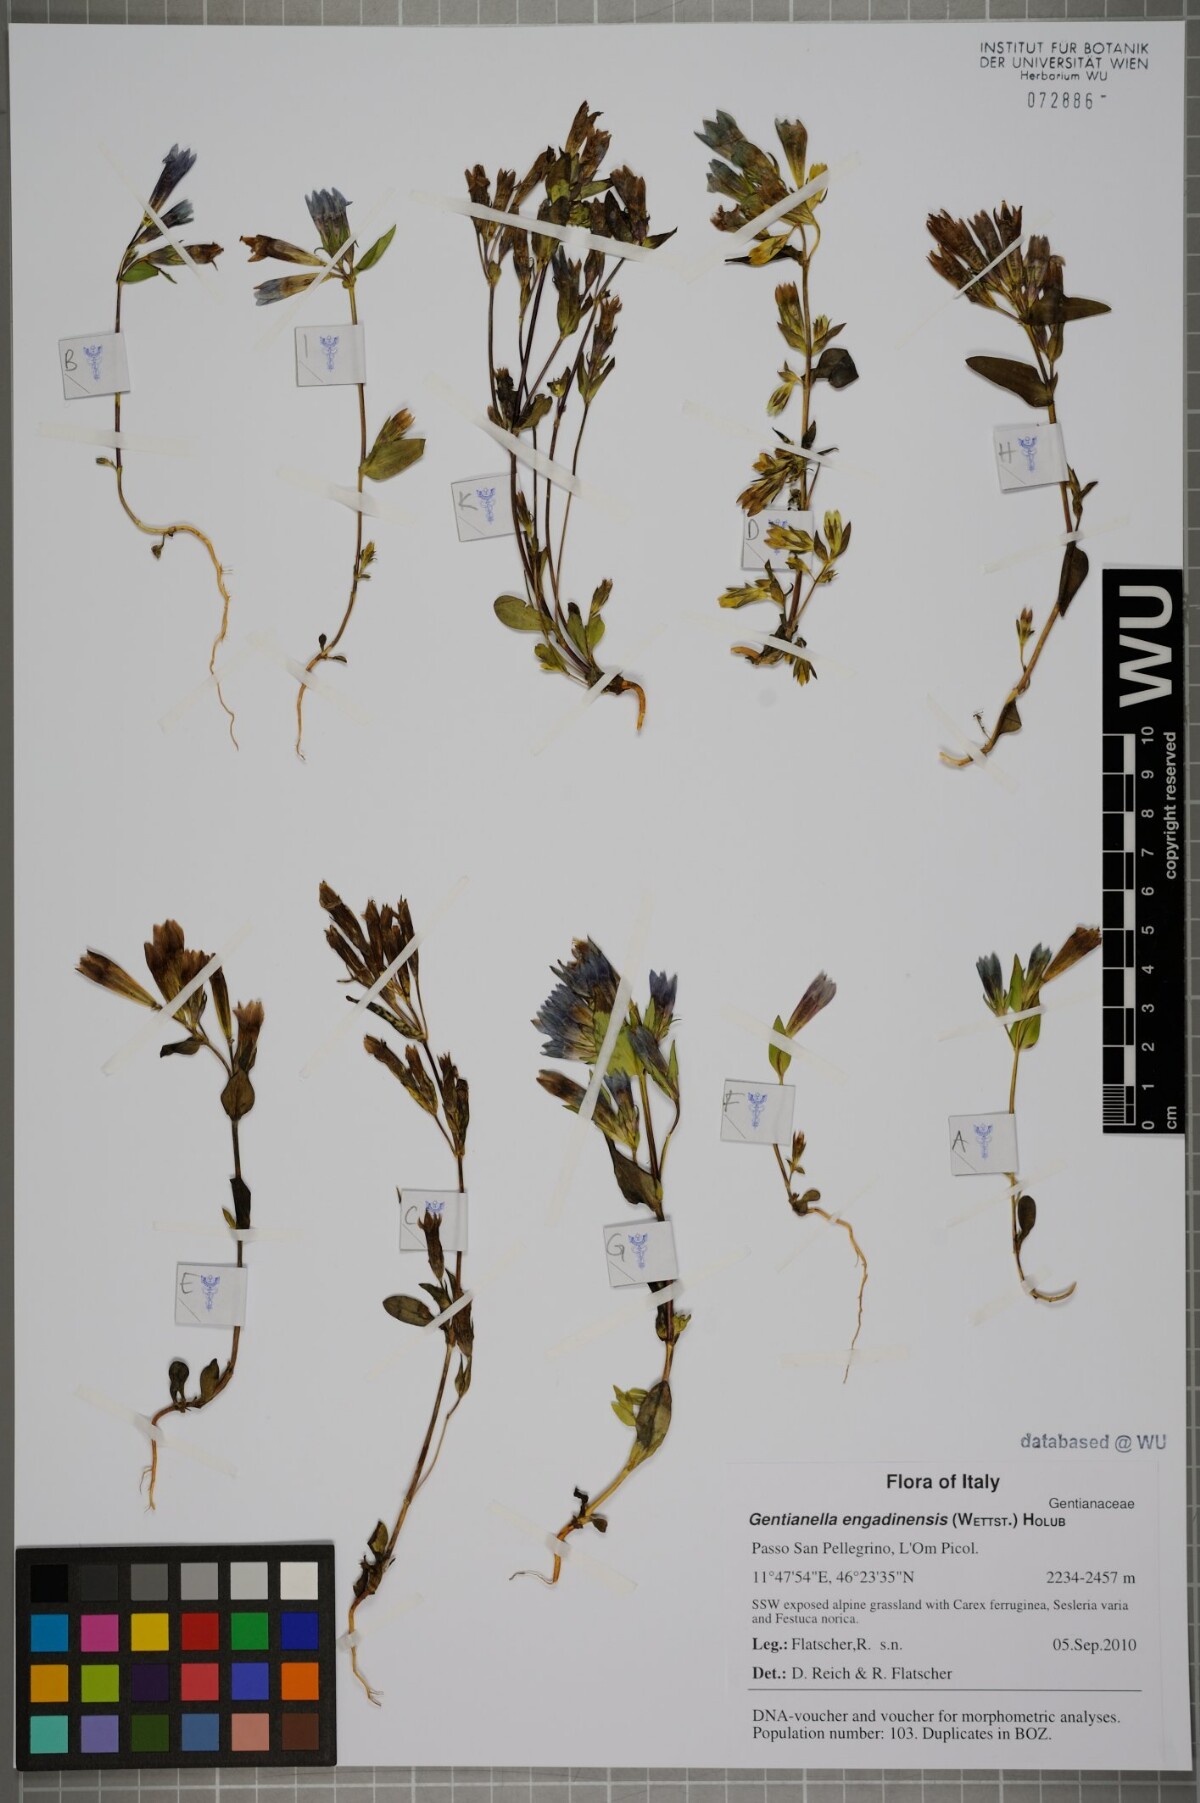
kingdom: Plantae
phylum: Tracheophyta
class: Magnoliopsida
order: Gentianales
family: Gentianaceae
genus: Gentianella
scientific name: Gentianella engadinensis
